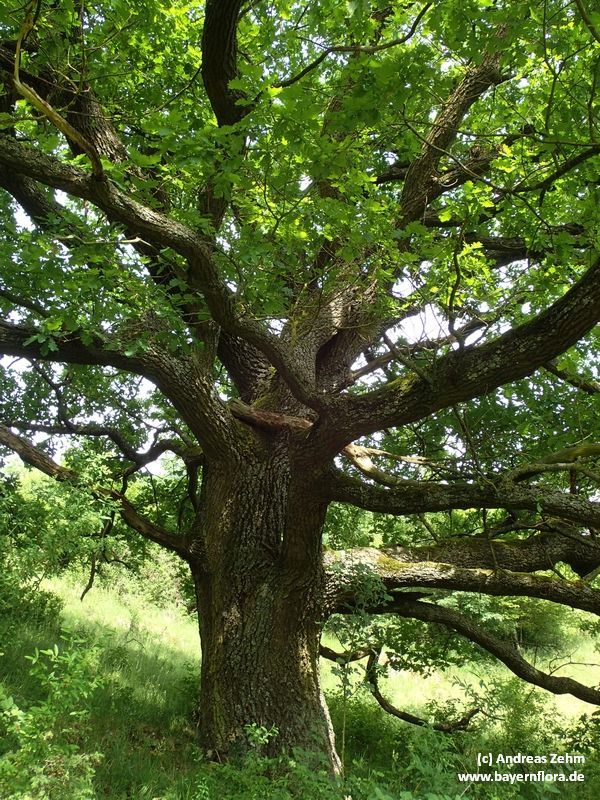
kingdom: Plantae
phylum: Tracheophyta
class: Magnoliopsida
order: Fagales
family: Fagaceae
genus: Quercus
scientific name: Quercus robur
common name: Pedunculate oak
